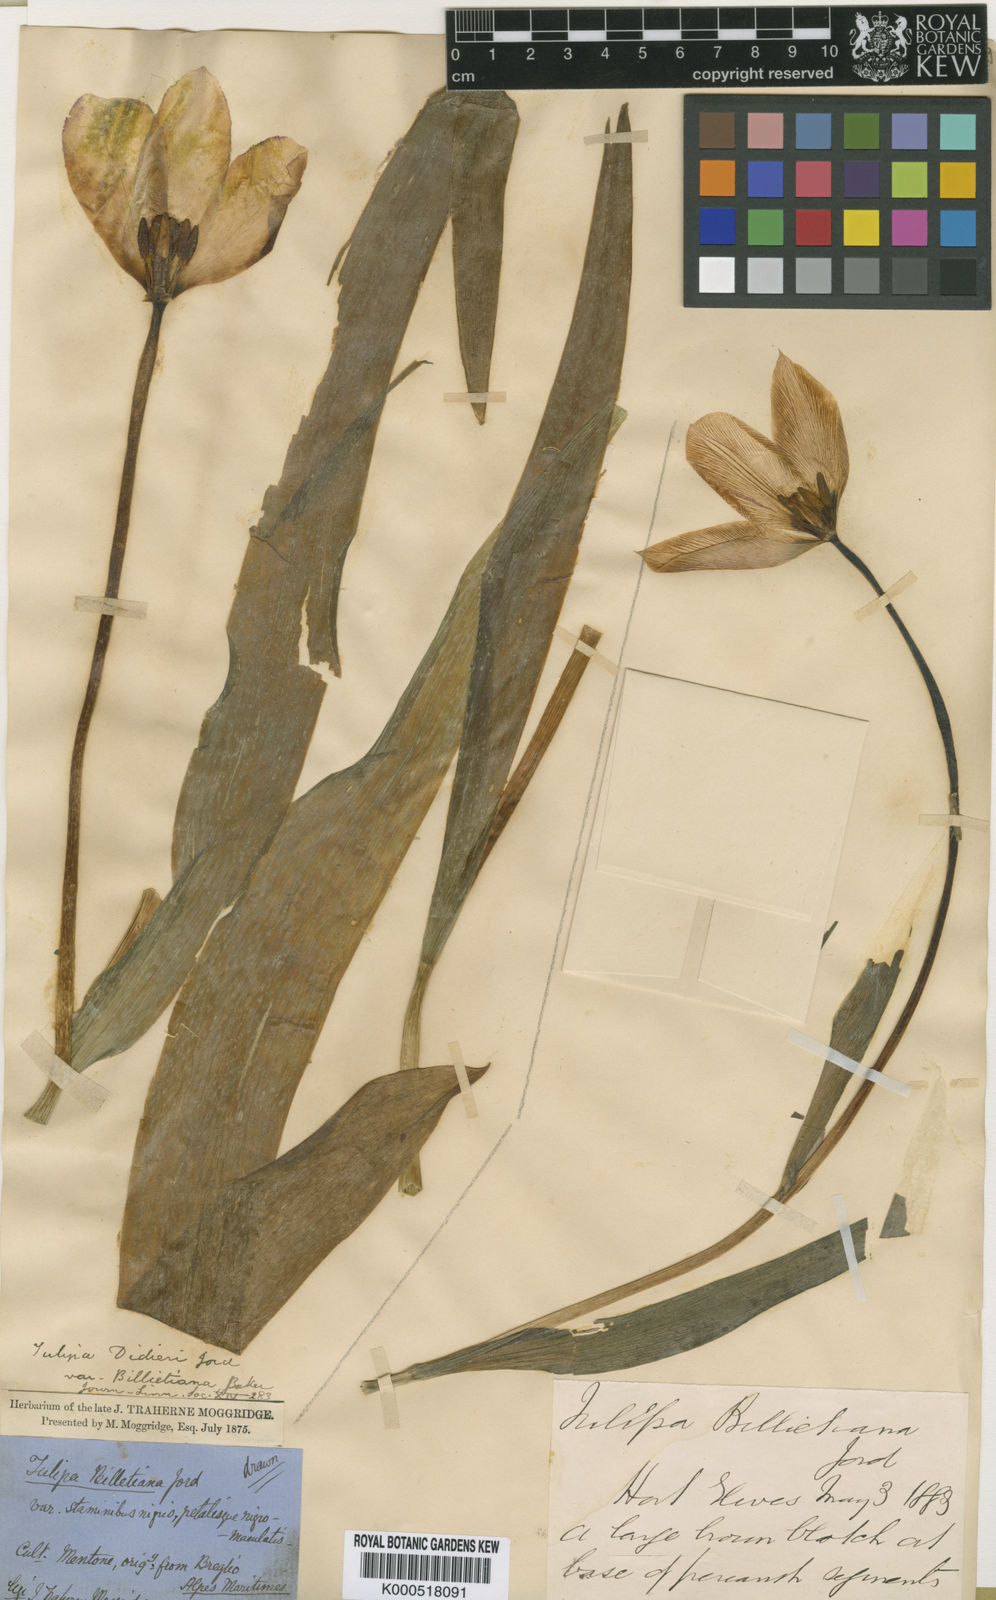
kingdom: Plantae
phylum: Tracheophyta
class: Liliopsida
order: Liliales
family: Liliaceae
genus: Tulipa
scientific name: Tulipa gesneriana
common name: Garden tulip
